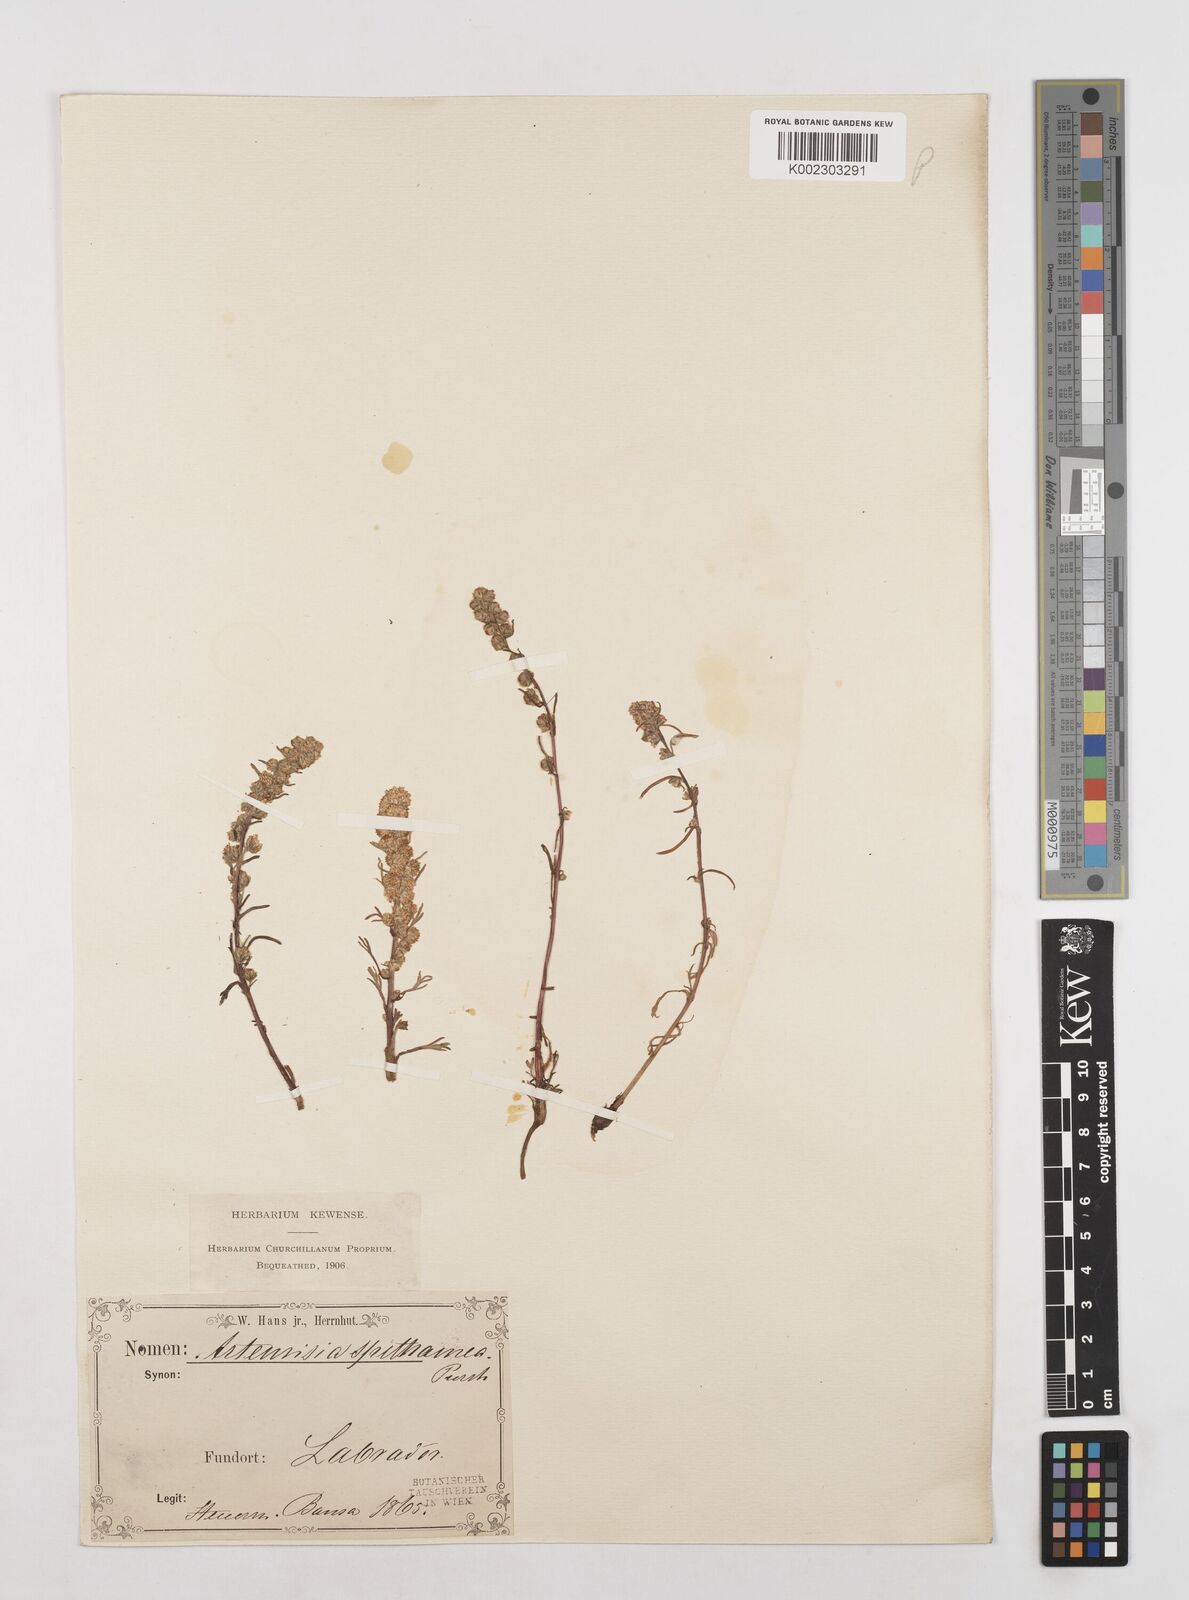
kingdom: Plantae
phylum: Tracheophyta
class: Magnoliopsida
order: Asterales
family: Asteraceae
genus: Artemisia
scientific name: Artemisia borealis
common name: Boreal sage
